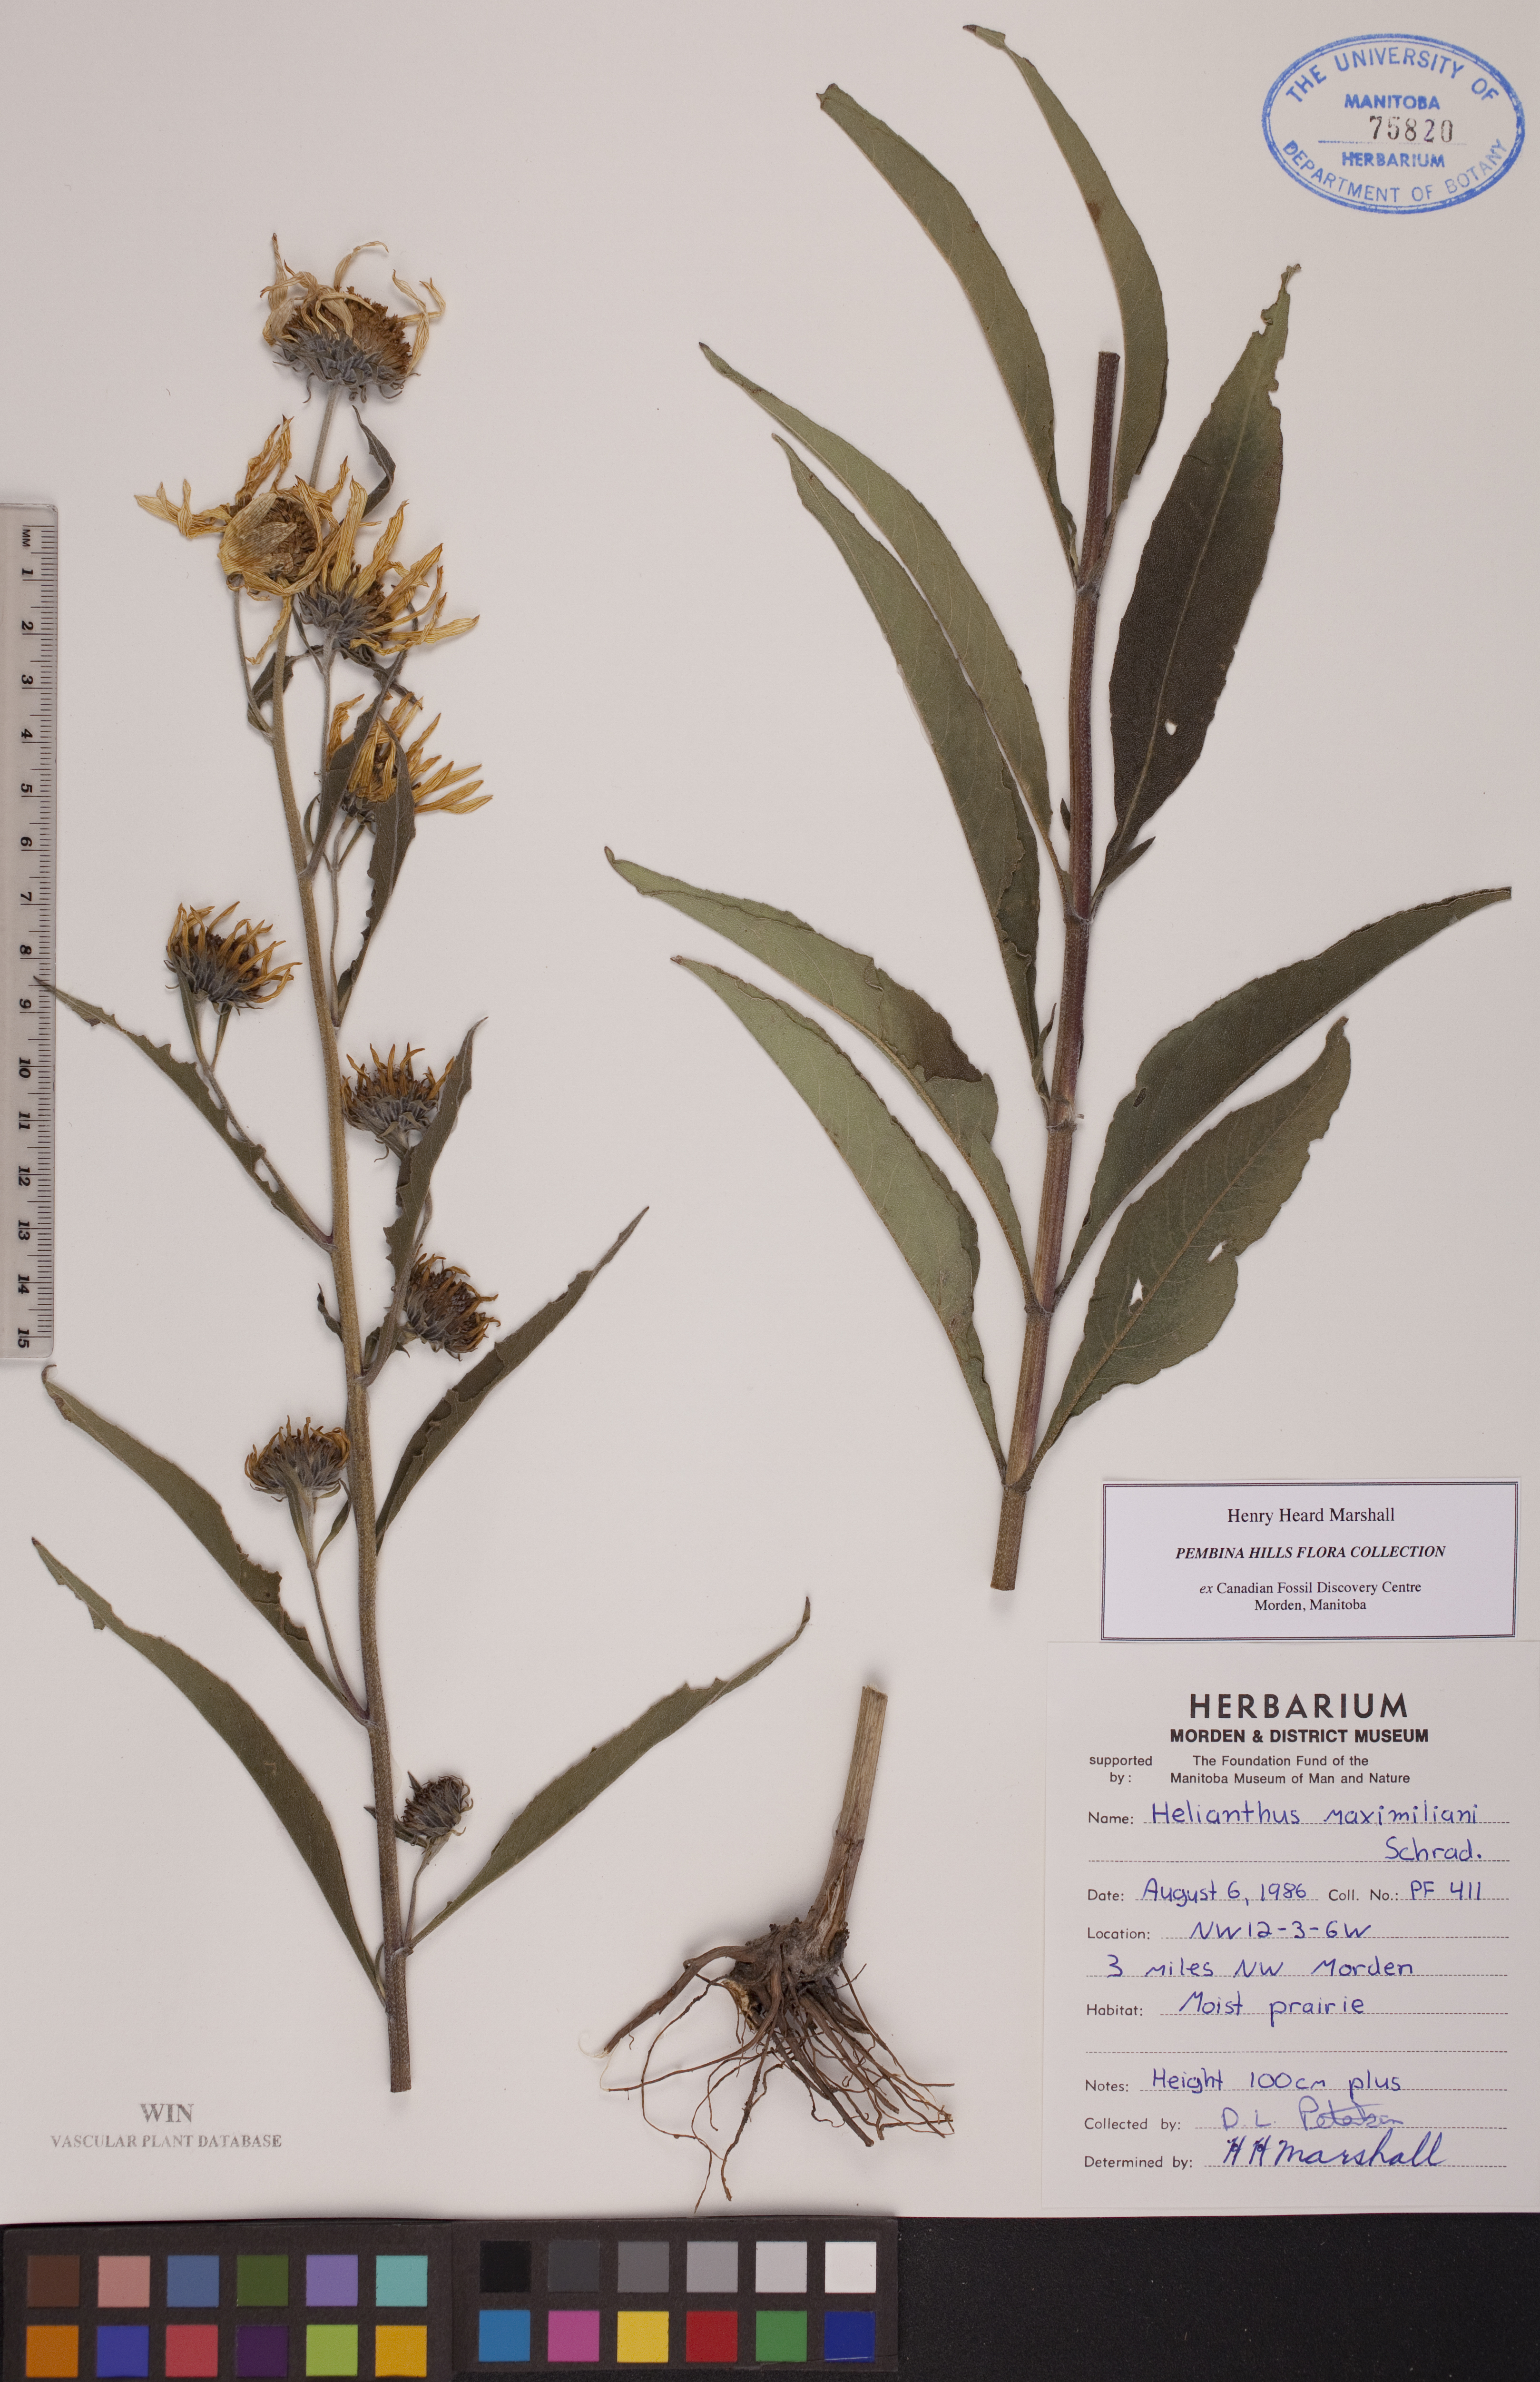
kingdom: Plantae
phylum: Tracheophyta
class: Magnoliopsida
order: Asterales
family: Asteraceae
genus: Helianthus
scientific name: Helianthus maximiliani
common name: Maximilian's sunflower
